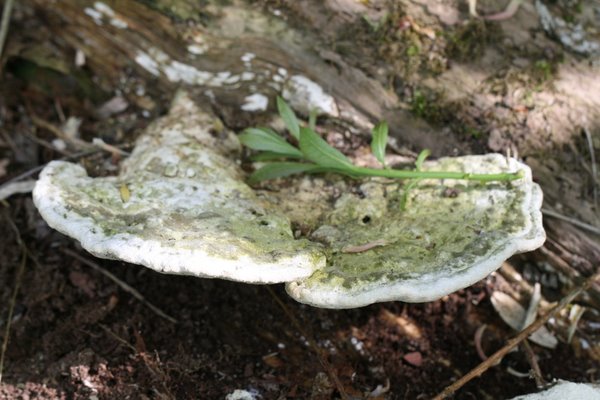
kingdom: Fungi
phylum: Basidiomycota
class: Agaricomycetes
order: Polyporales
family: Polyporaceae
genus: Trametes
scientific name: Trametes gibbosa
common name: puklet læderporesvamp
